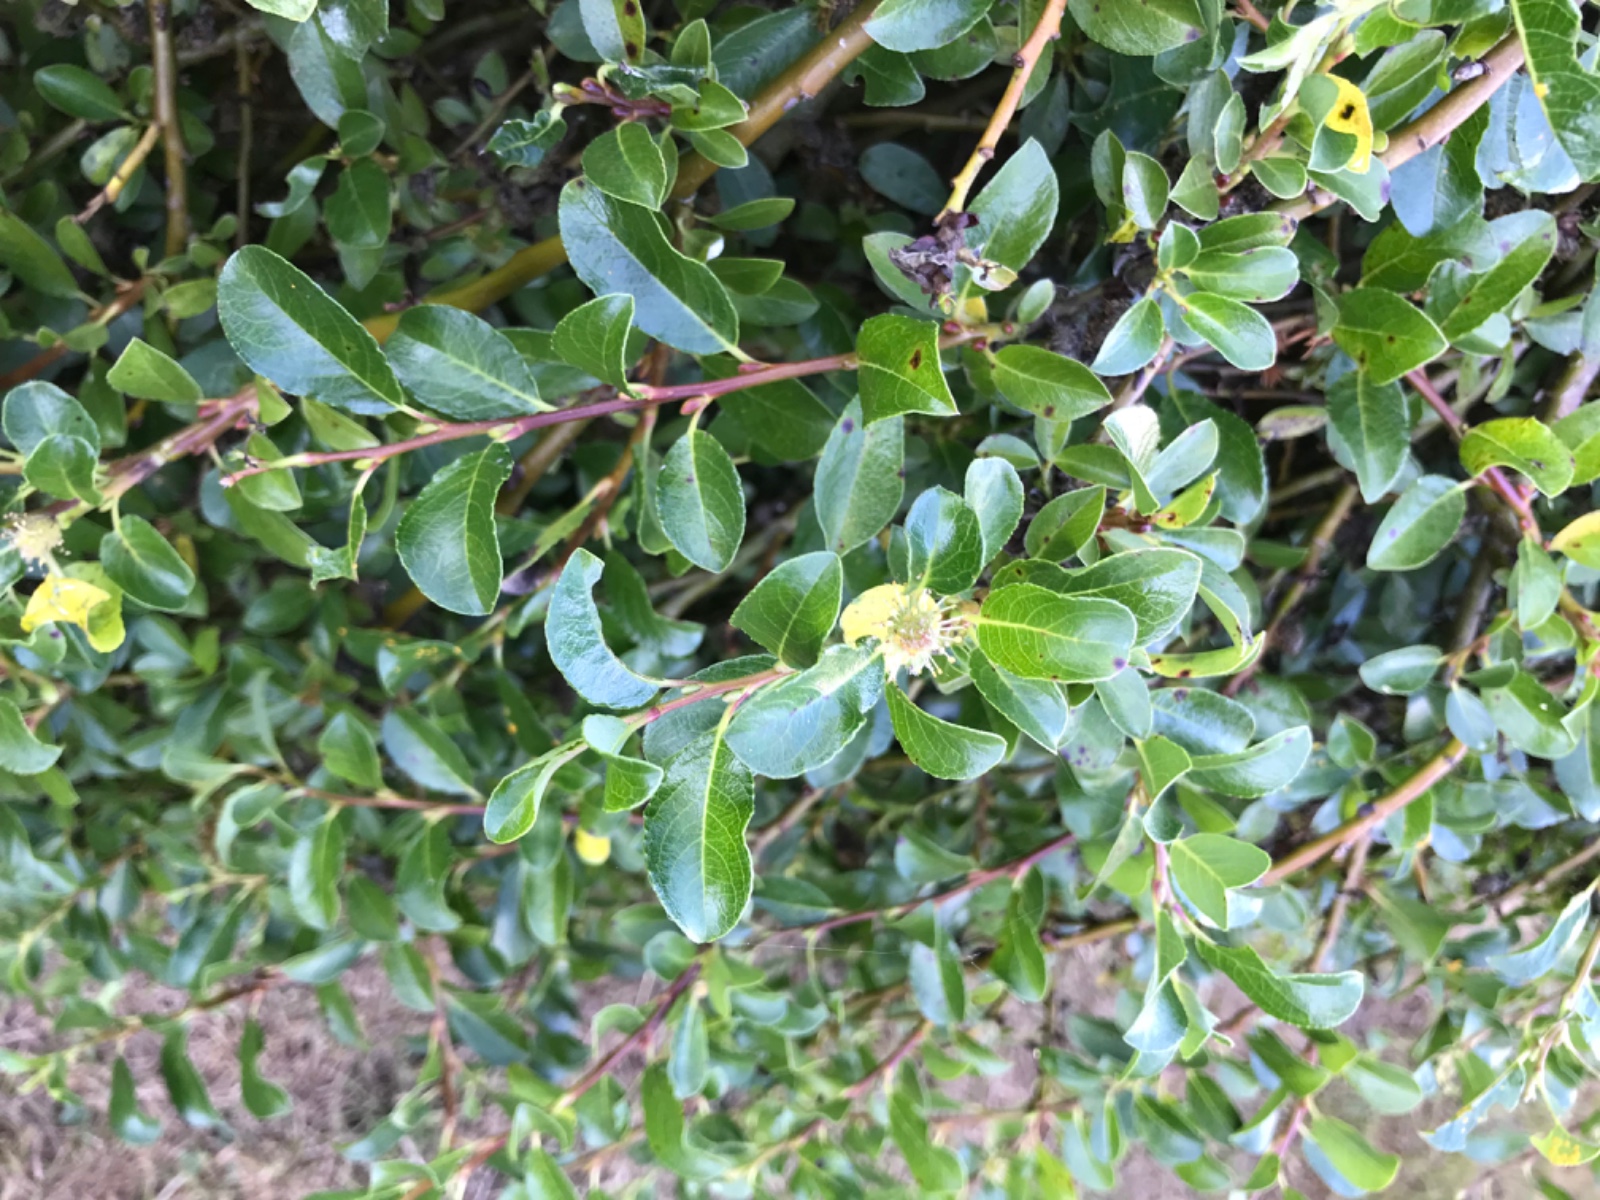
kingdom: Fungi
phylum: Basidiomycota
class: Pucciniomycetes
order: Pucciniales
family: Melampsoraceae
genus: Melampsora
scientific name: Melampsora epitea
